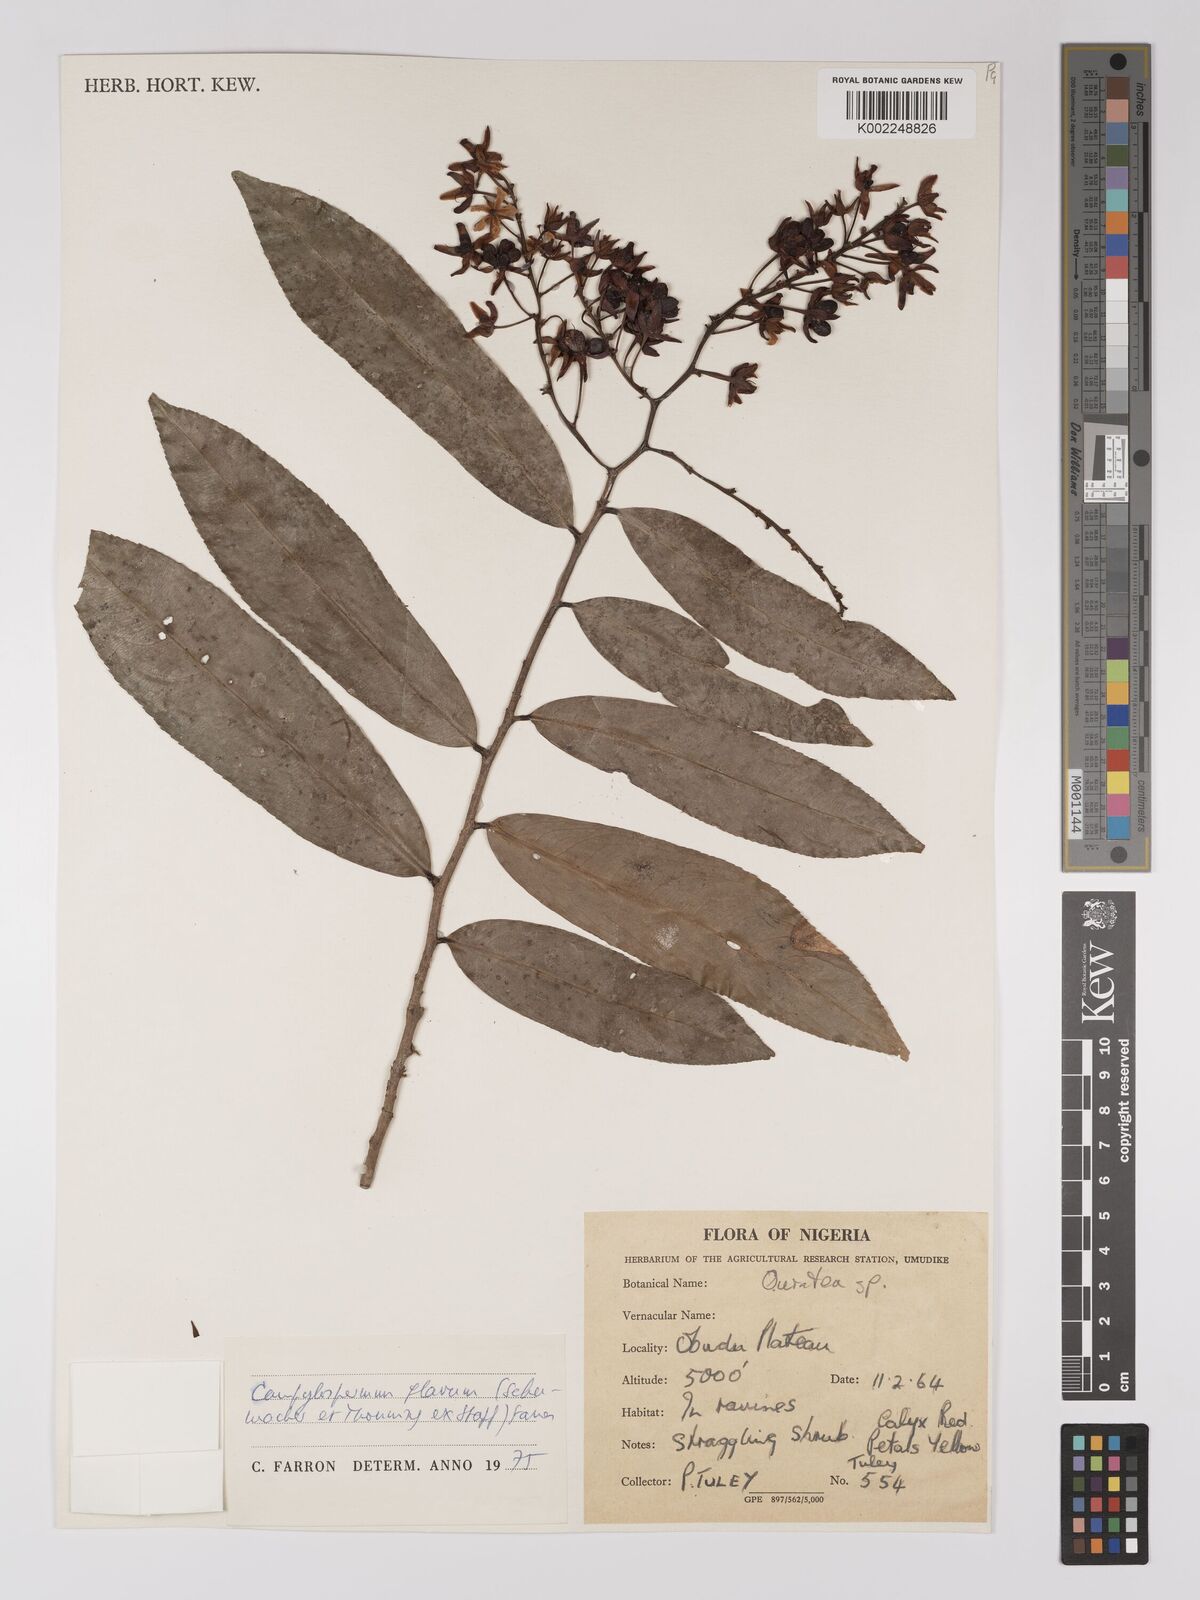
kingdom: Plantae
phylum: Tracheophyta
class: Magnoliopsida
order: Malpighiales
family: Ochnaceae
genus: Campylospermum
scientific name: Campylospermum flavum
